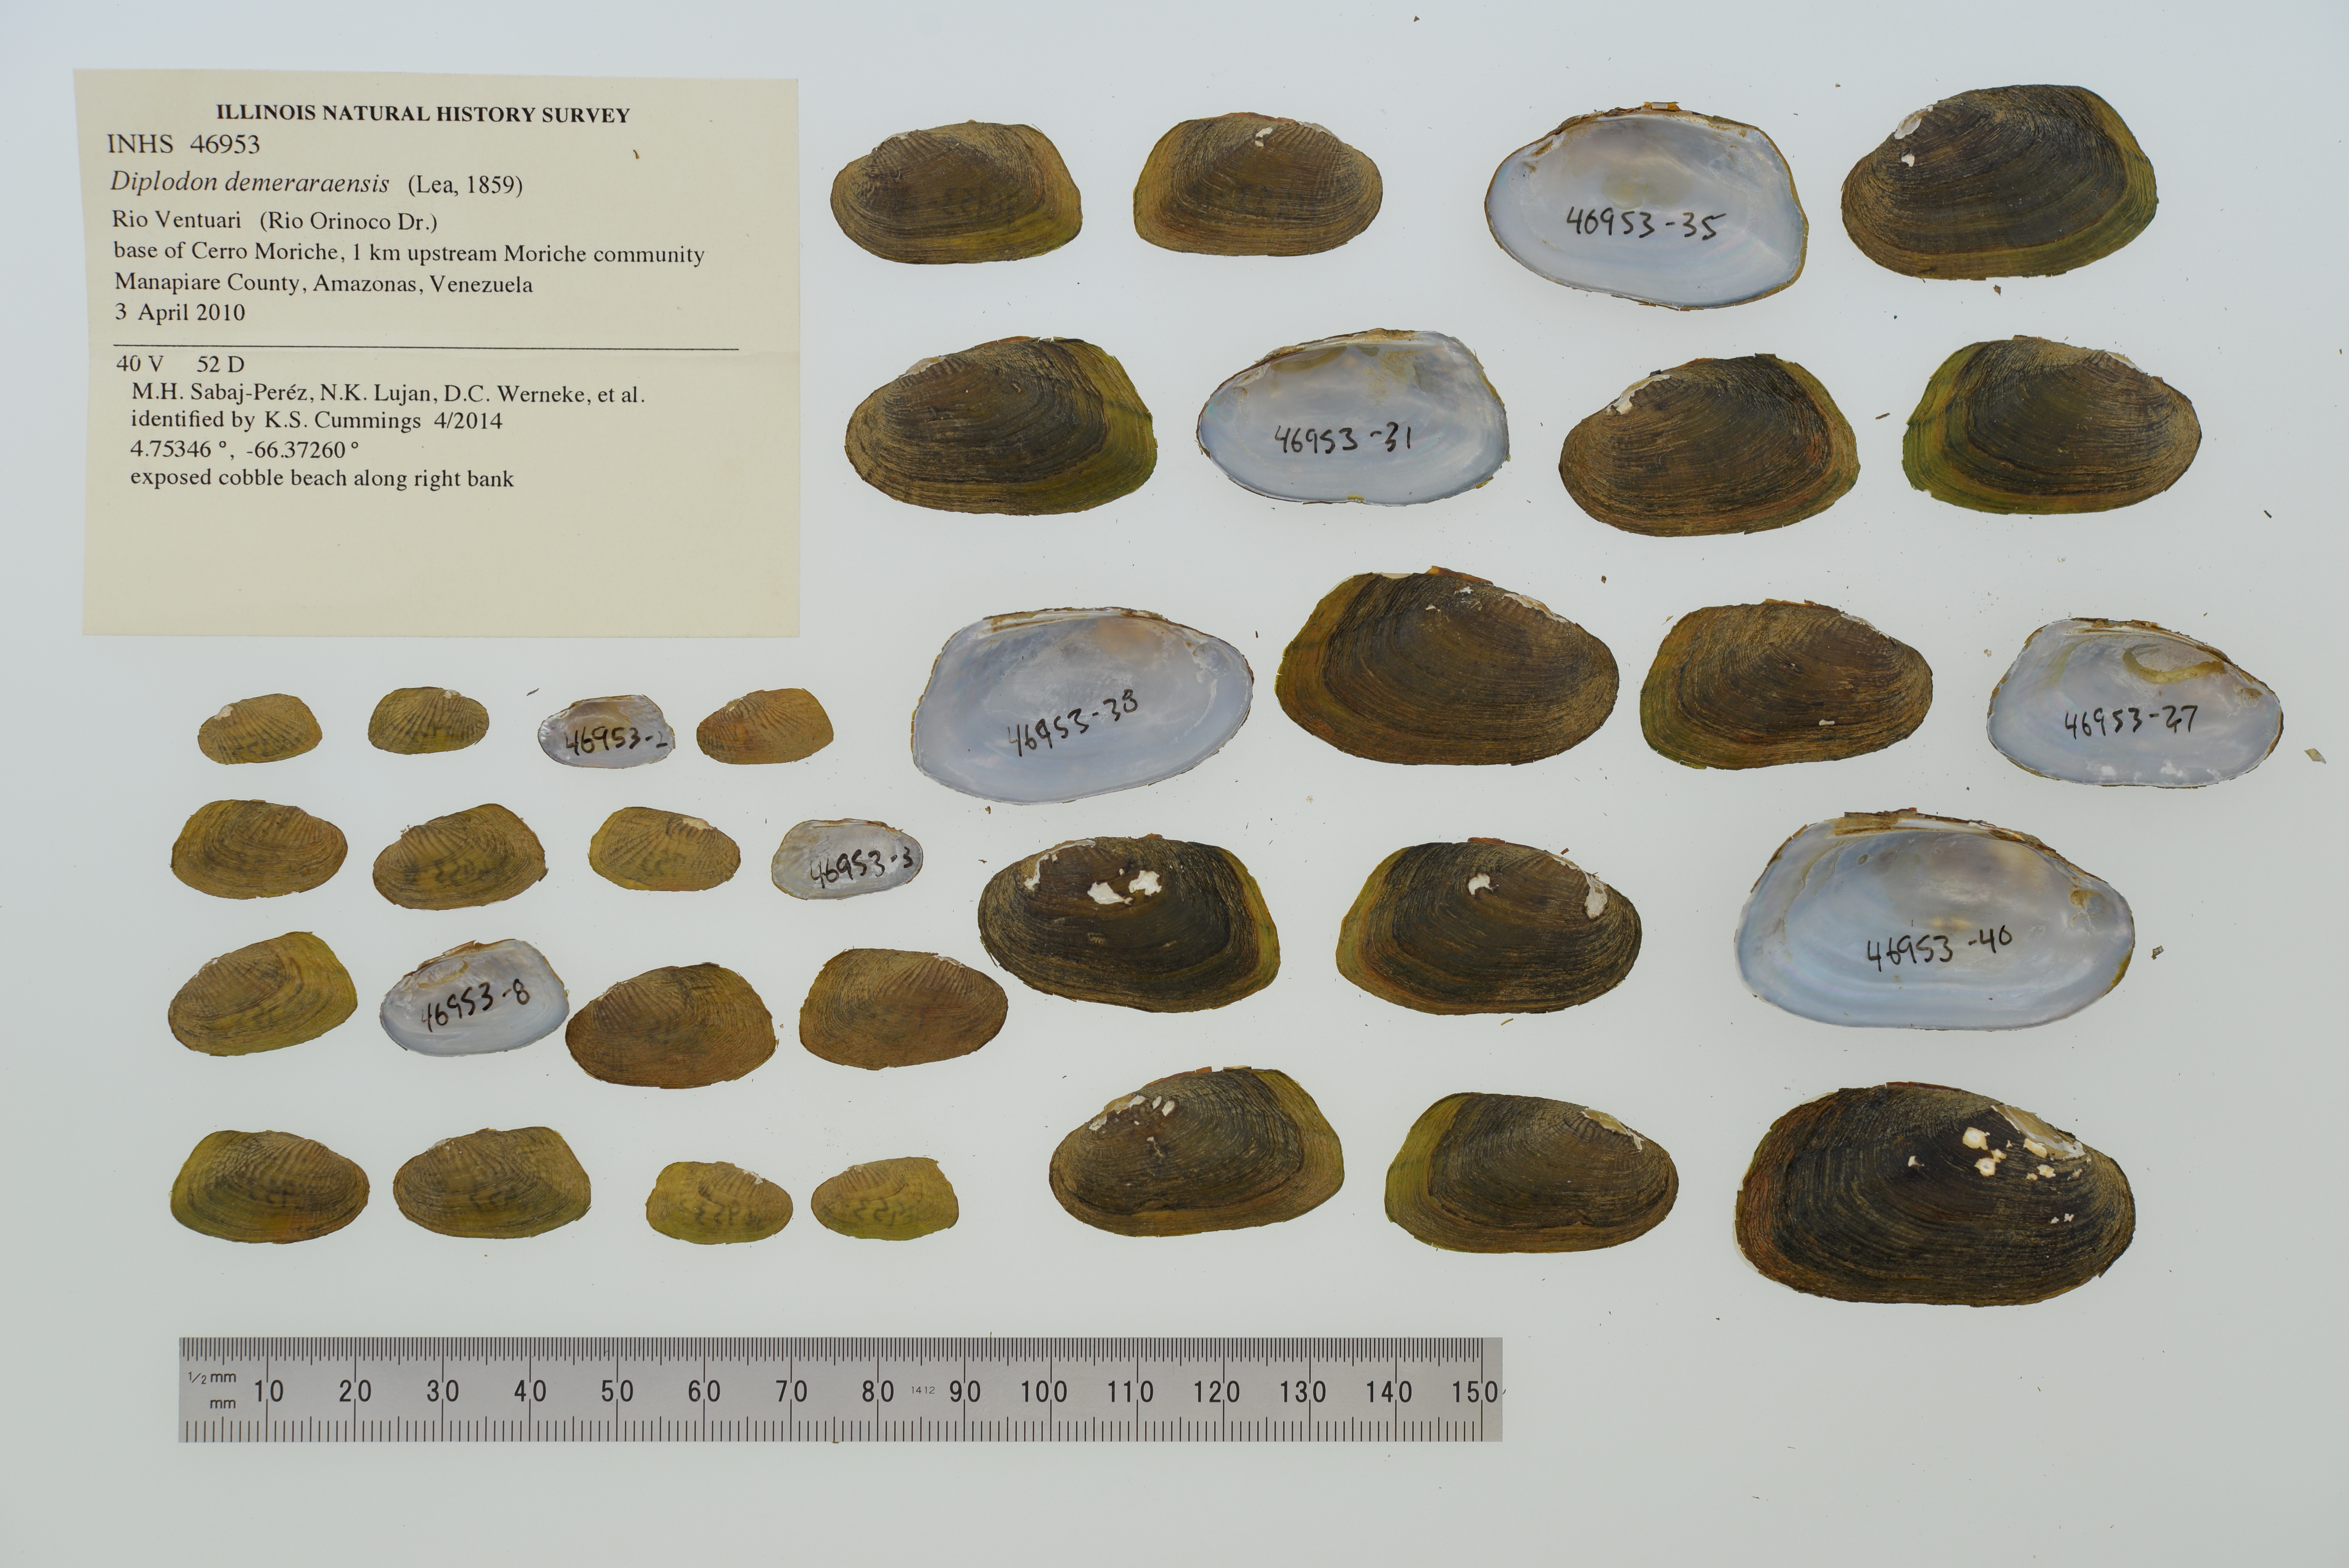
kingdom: Animalia
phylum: Mollusca
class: Bivalvia
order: Unionida
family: Hyriidae
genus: Diplodon
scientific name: Diplodon demeraraensis
